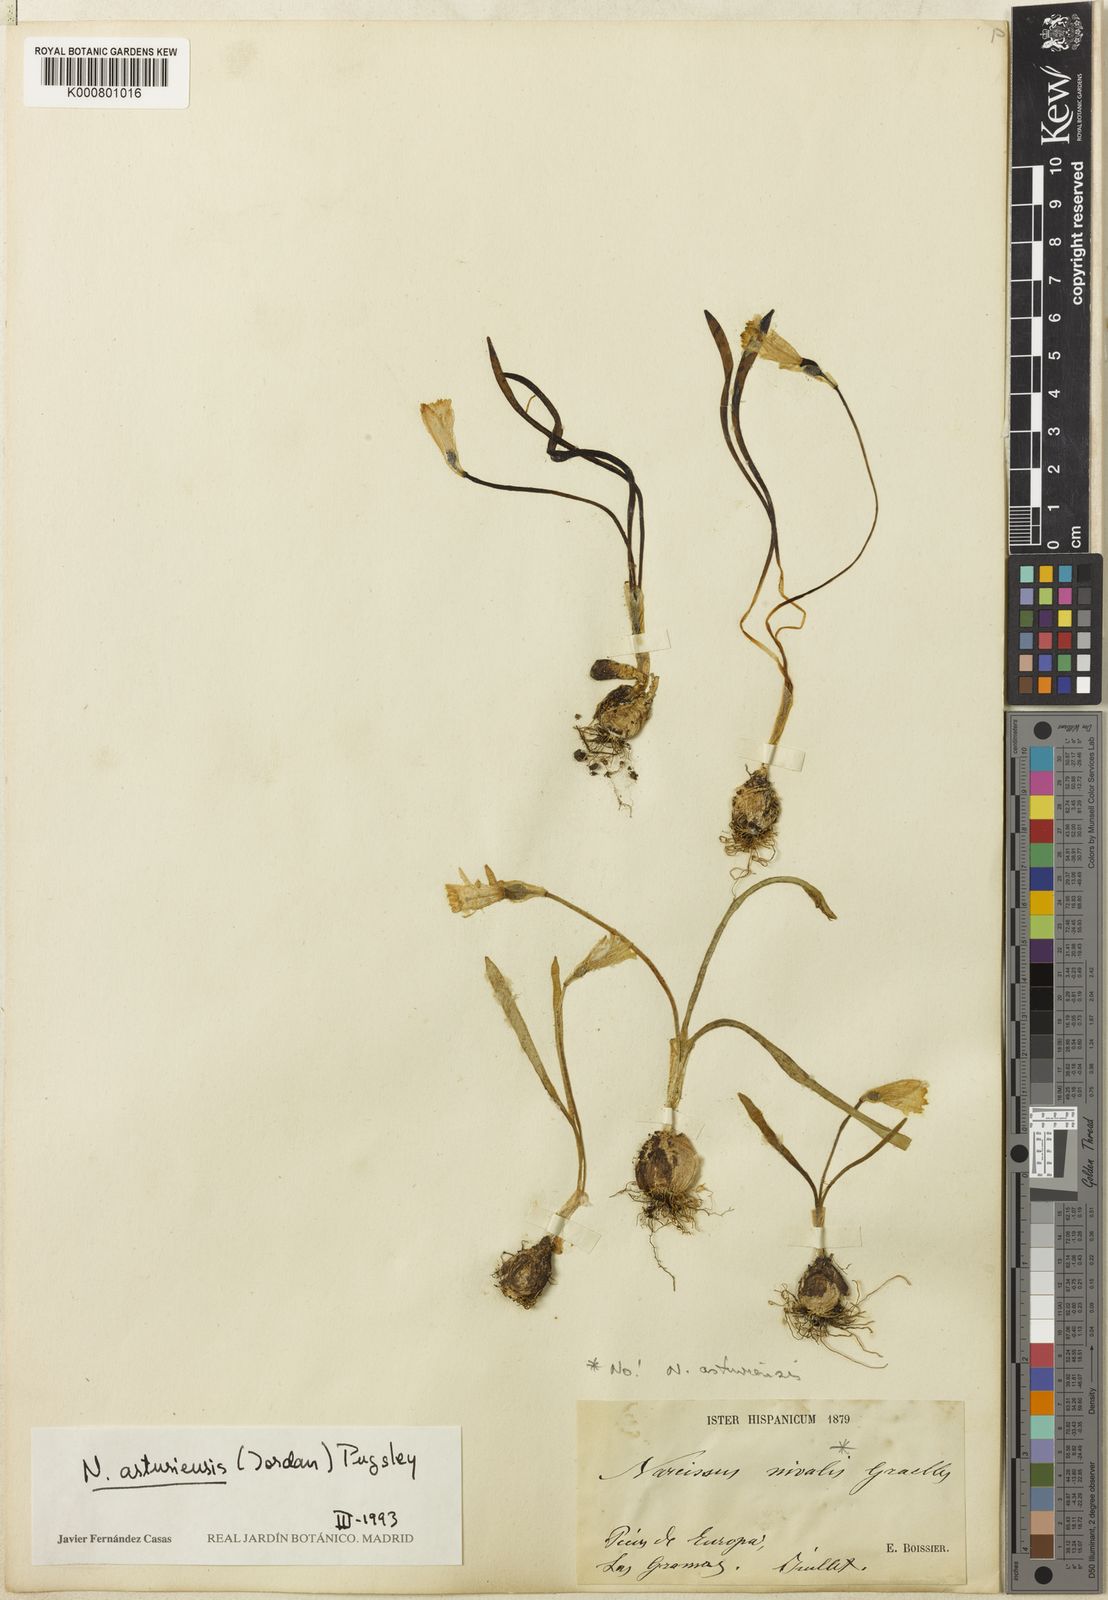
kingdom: Plantae
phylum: Tracheophyta
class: Liliopsida
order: Asparagales
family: Amaryllidaceae
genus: Narcissus
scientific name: Narcissus cuneiflorus
